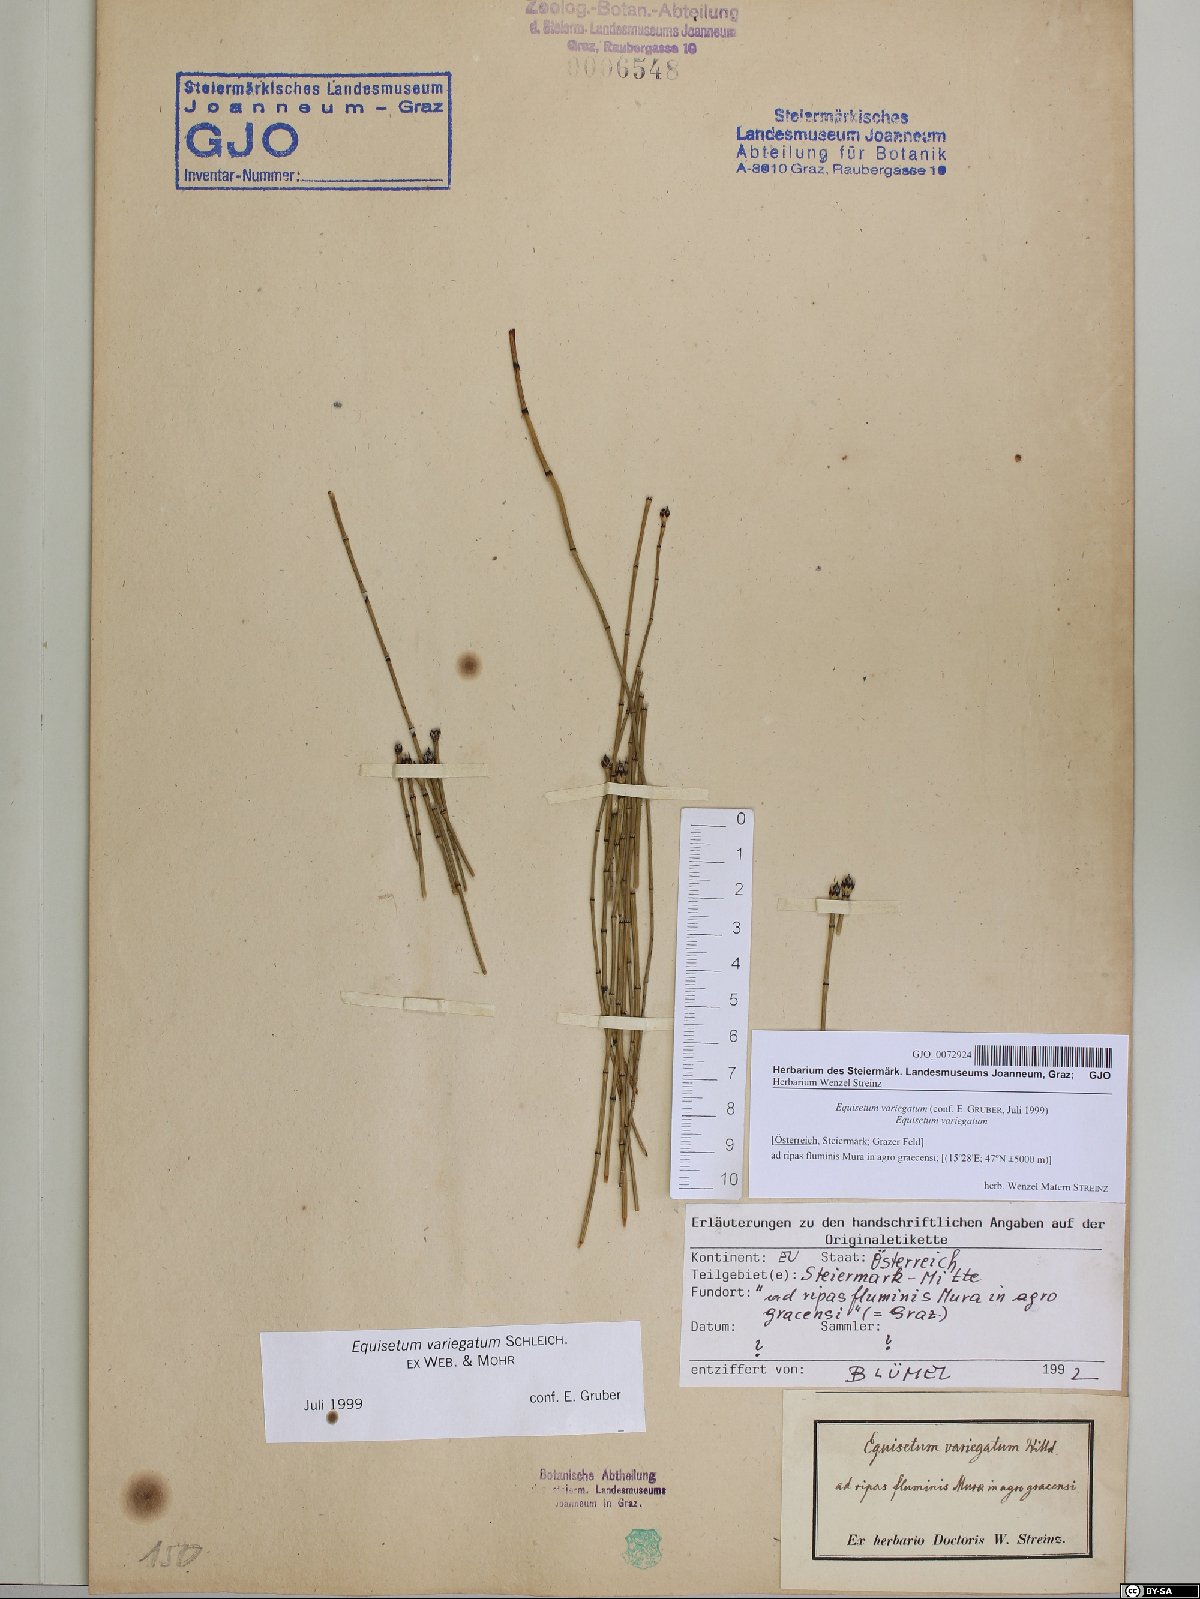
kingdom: Plantae
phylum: Tracheophyta
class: Polypodiopsida
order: Equisetales
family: Equisetaceae
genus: Equisetum
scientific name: Equisetum variegatum
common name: Variegated horsetail
